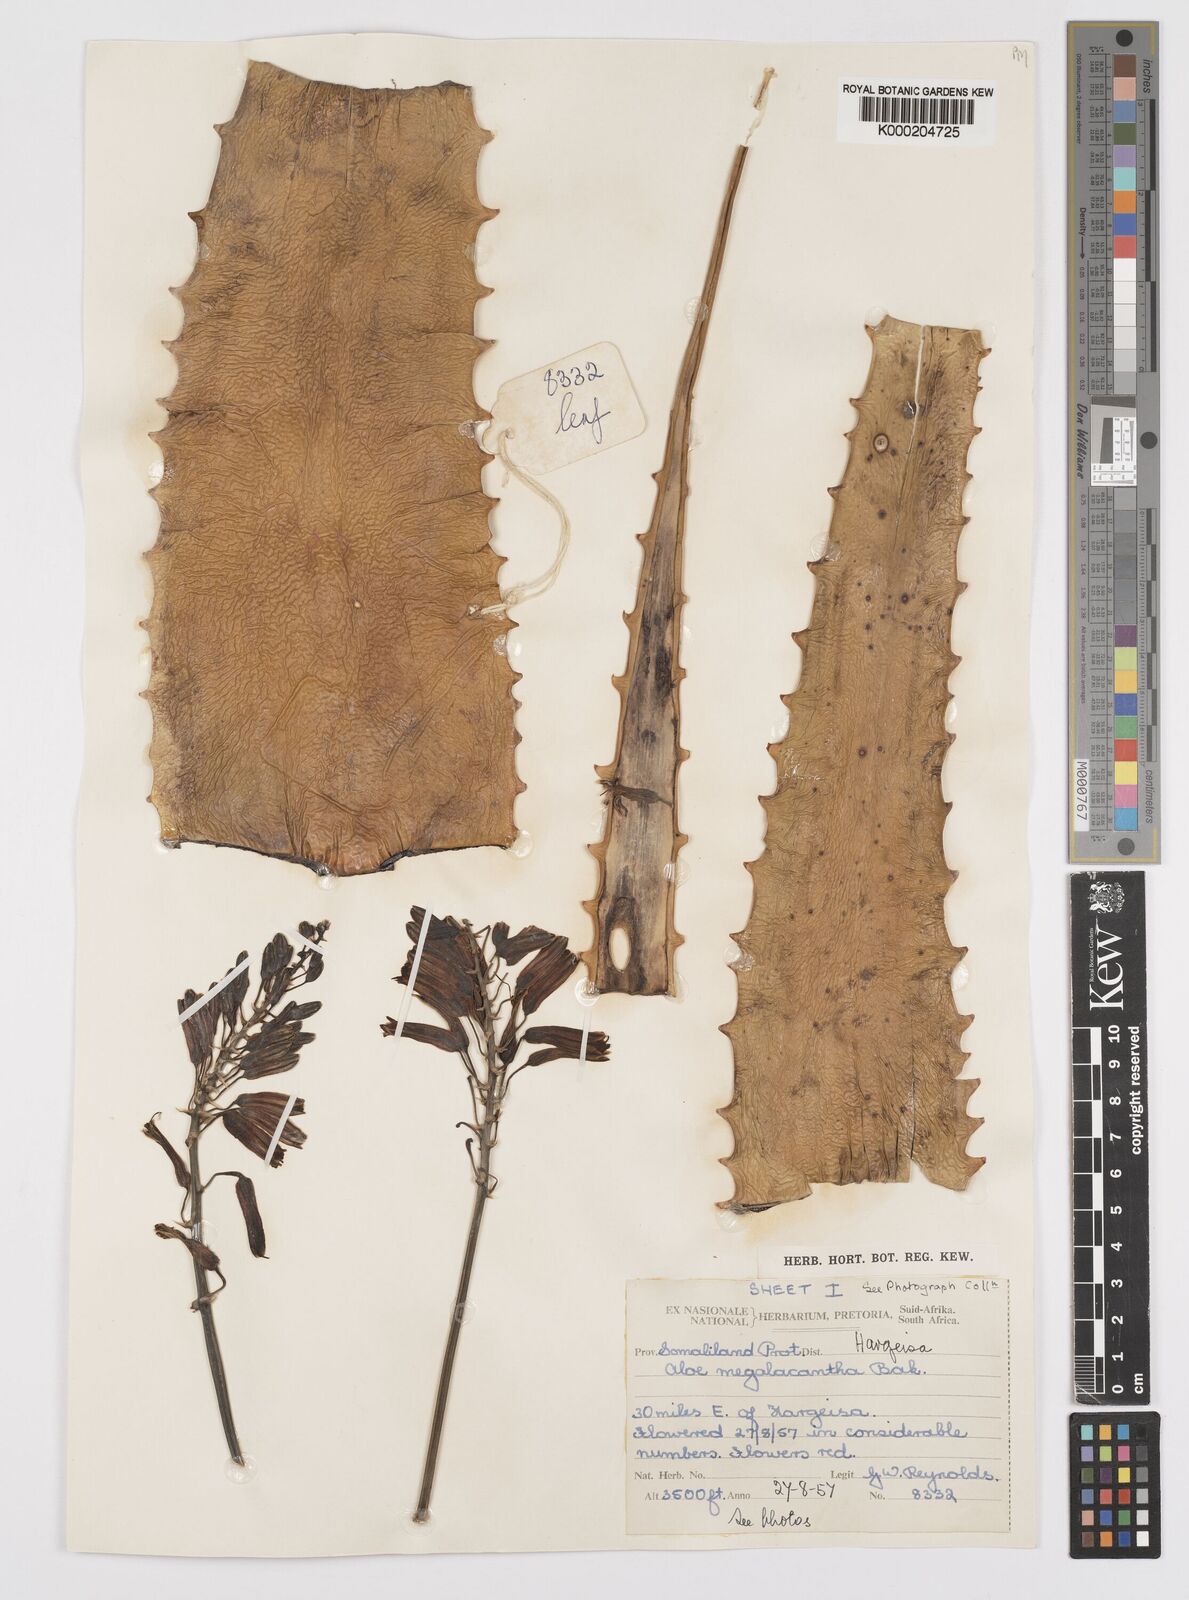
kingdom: Plantae
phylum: Tracheophyta
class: Liliopsida
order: Asparagales
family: Asphodelaceae
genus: Aloe
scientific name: Aloe megalacantha
